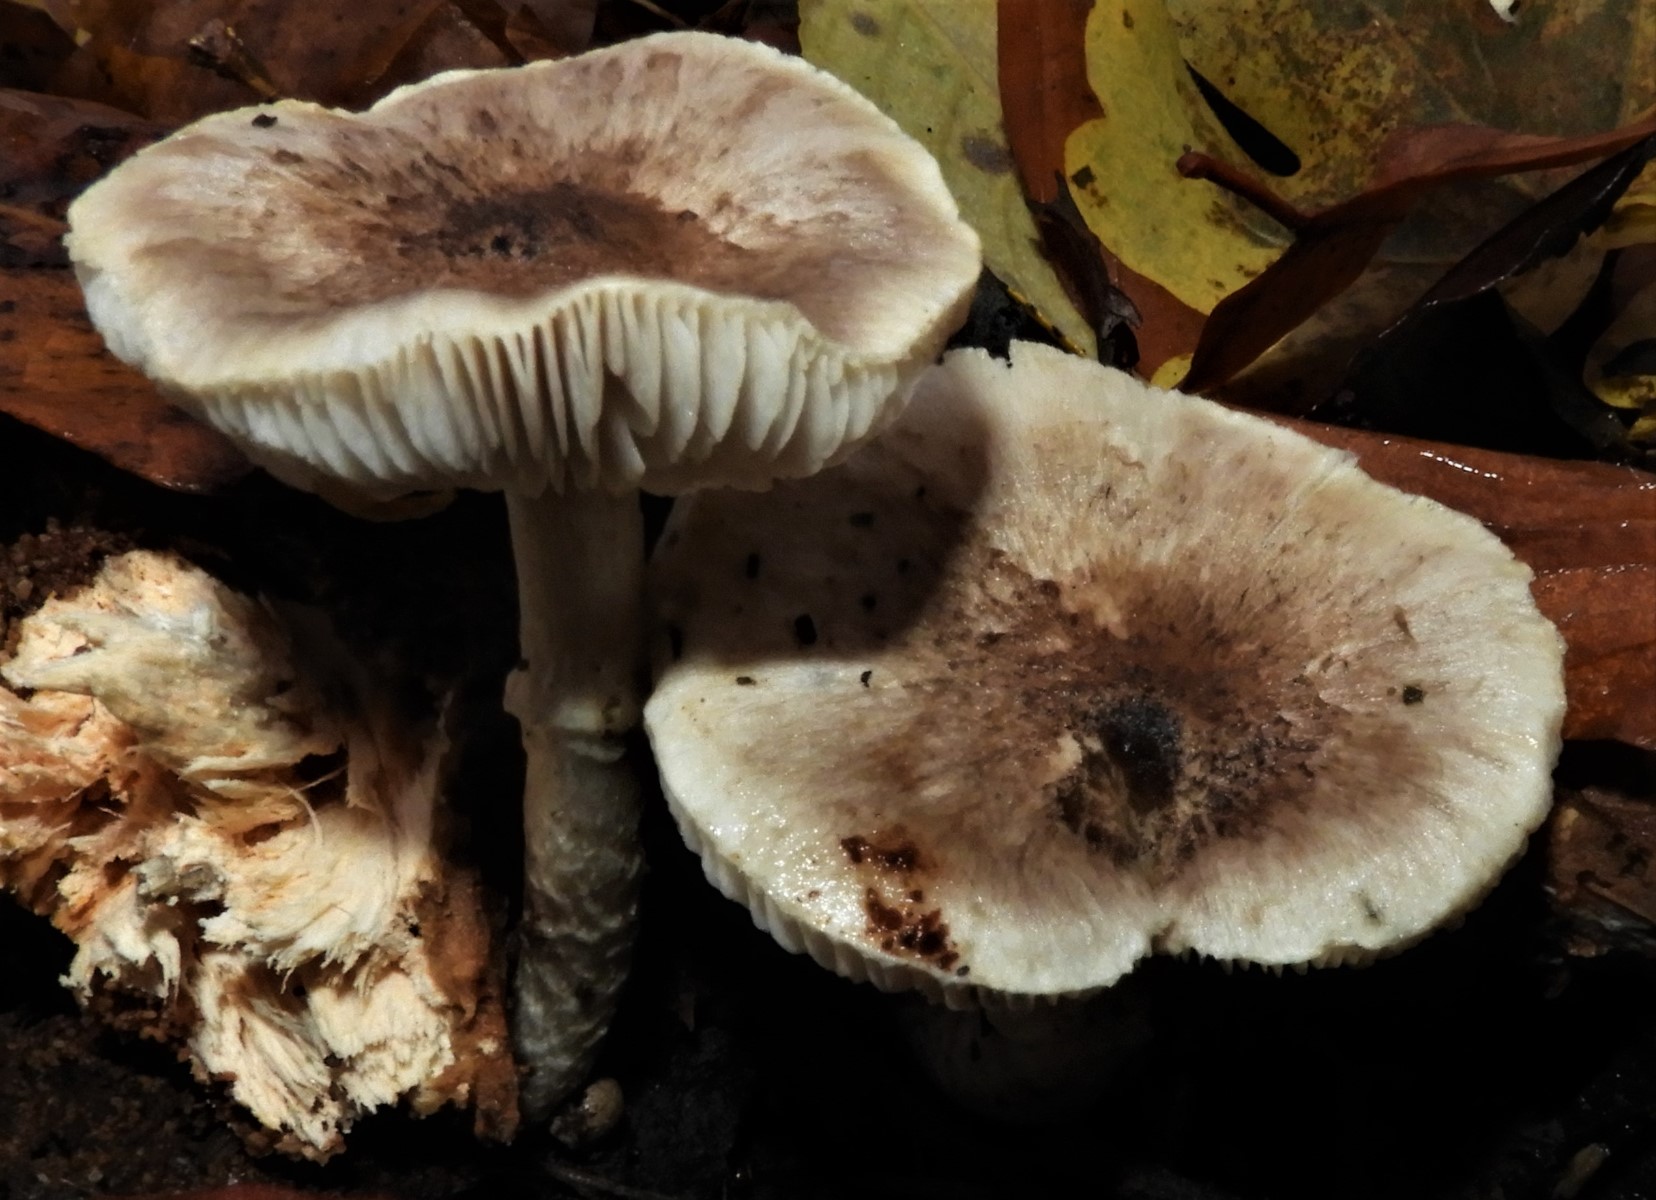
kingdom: Fungi
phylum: Basidiomycota
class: Agaricomycetes
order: Agaricales
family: Tricholomataceae
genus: Tricholoma
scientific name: Tricholoma cingulatum
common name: ring-ridderhat
